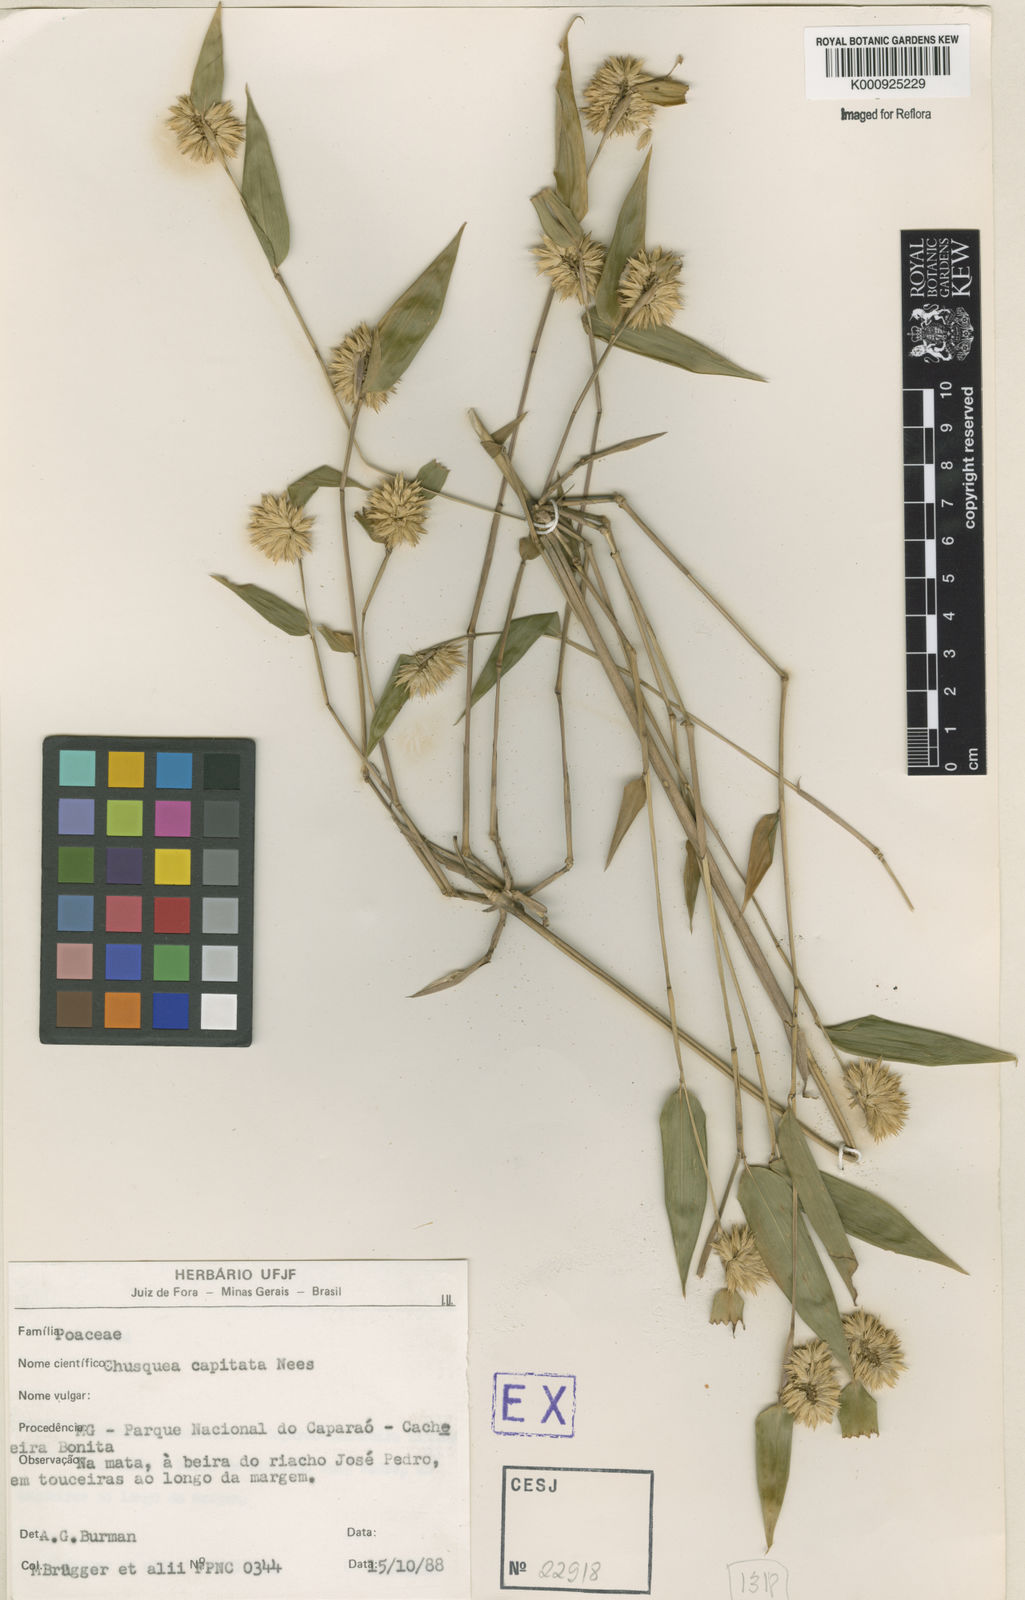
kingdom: Plantae
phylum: Tracheophyta
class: Liliopsida
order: Poales
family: Poaceae
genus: Chusquea
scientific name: Chusquea capitata
